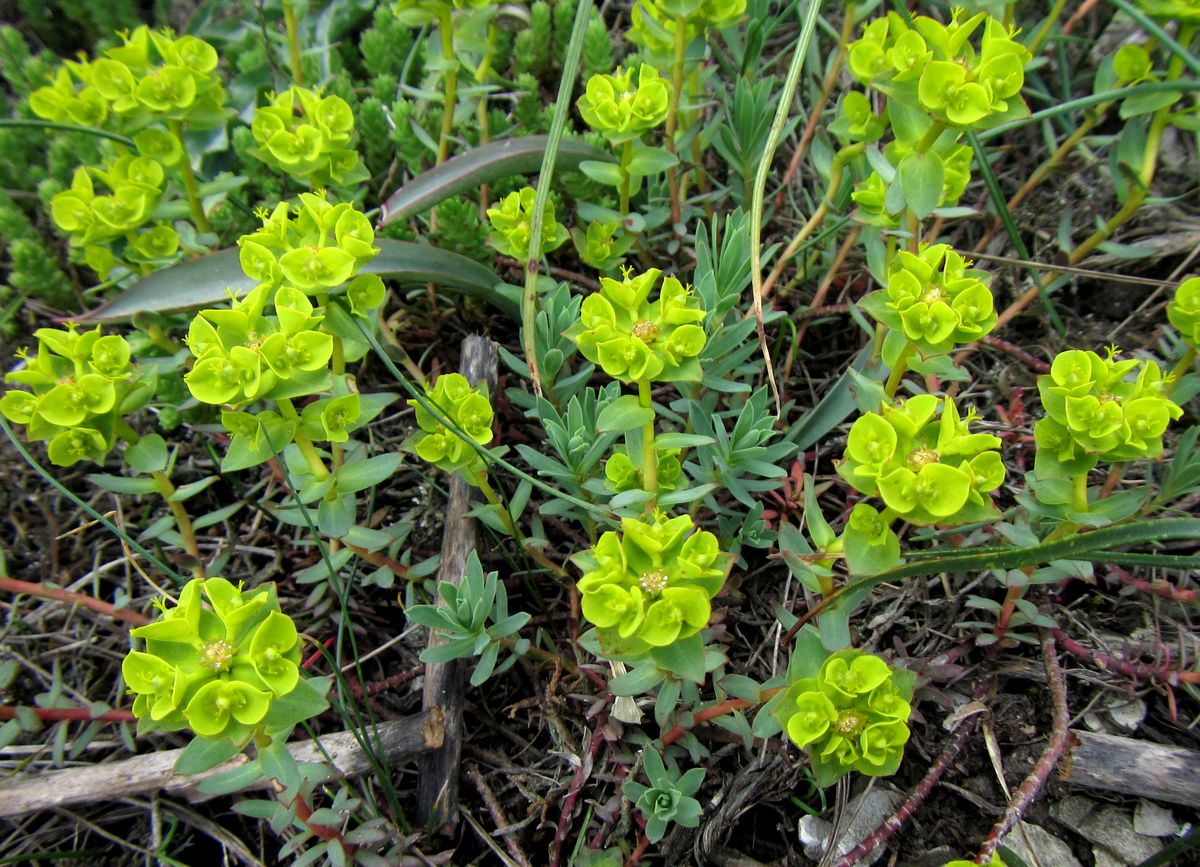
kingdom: Plantae
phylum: Tracheophyta
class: Magnoliopsida
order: Malpighiales
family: Euphorbiaceae
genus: Euphorbia
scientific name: Euphorbia petrophila
